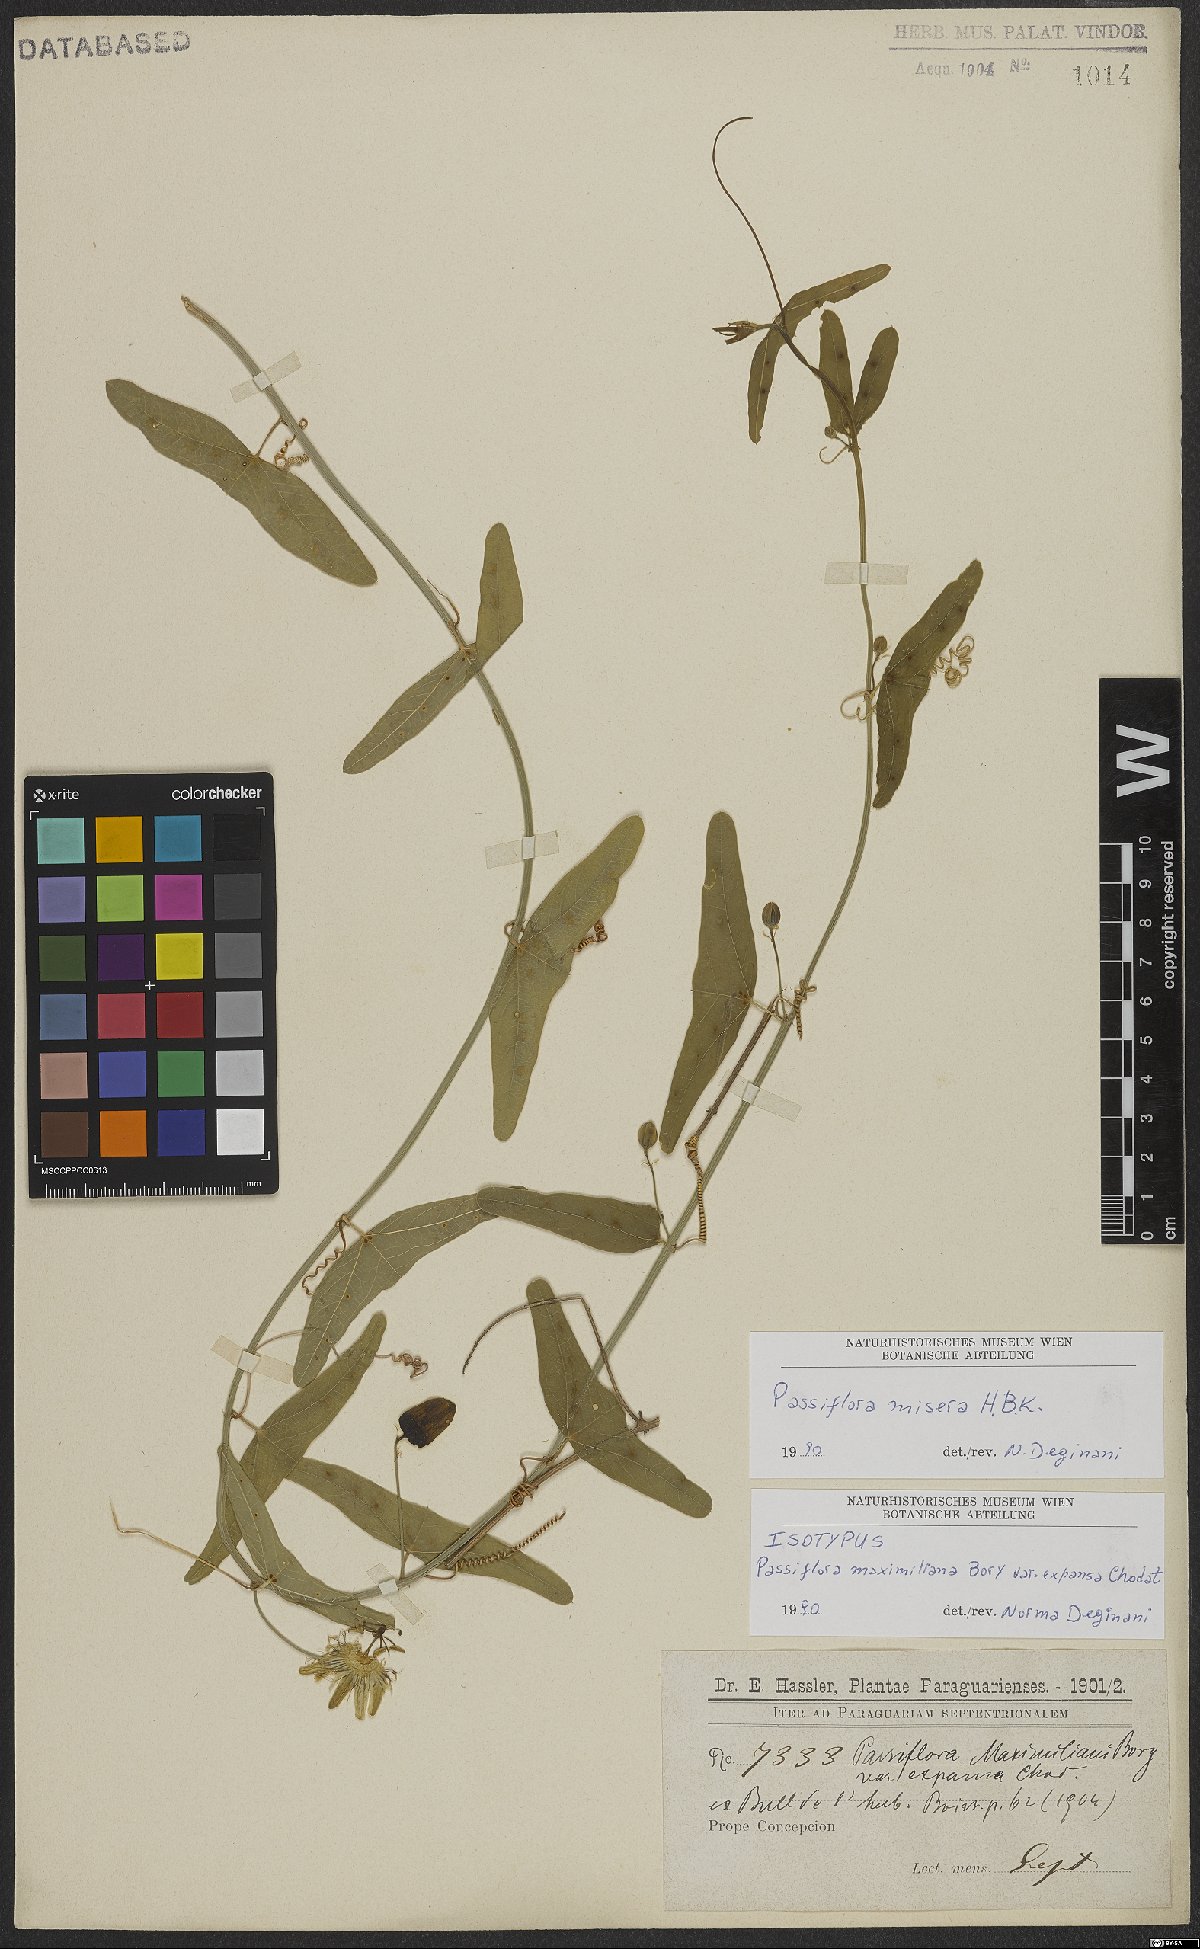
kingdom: Plantae
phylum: Tracheophyta
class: Magnoliopsida
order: Malpighiales
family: Passifloraceae
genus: Passiflora
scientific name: Passiflora misera
